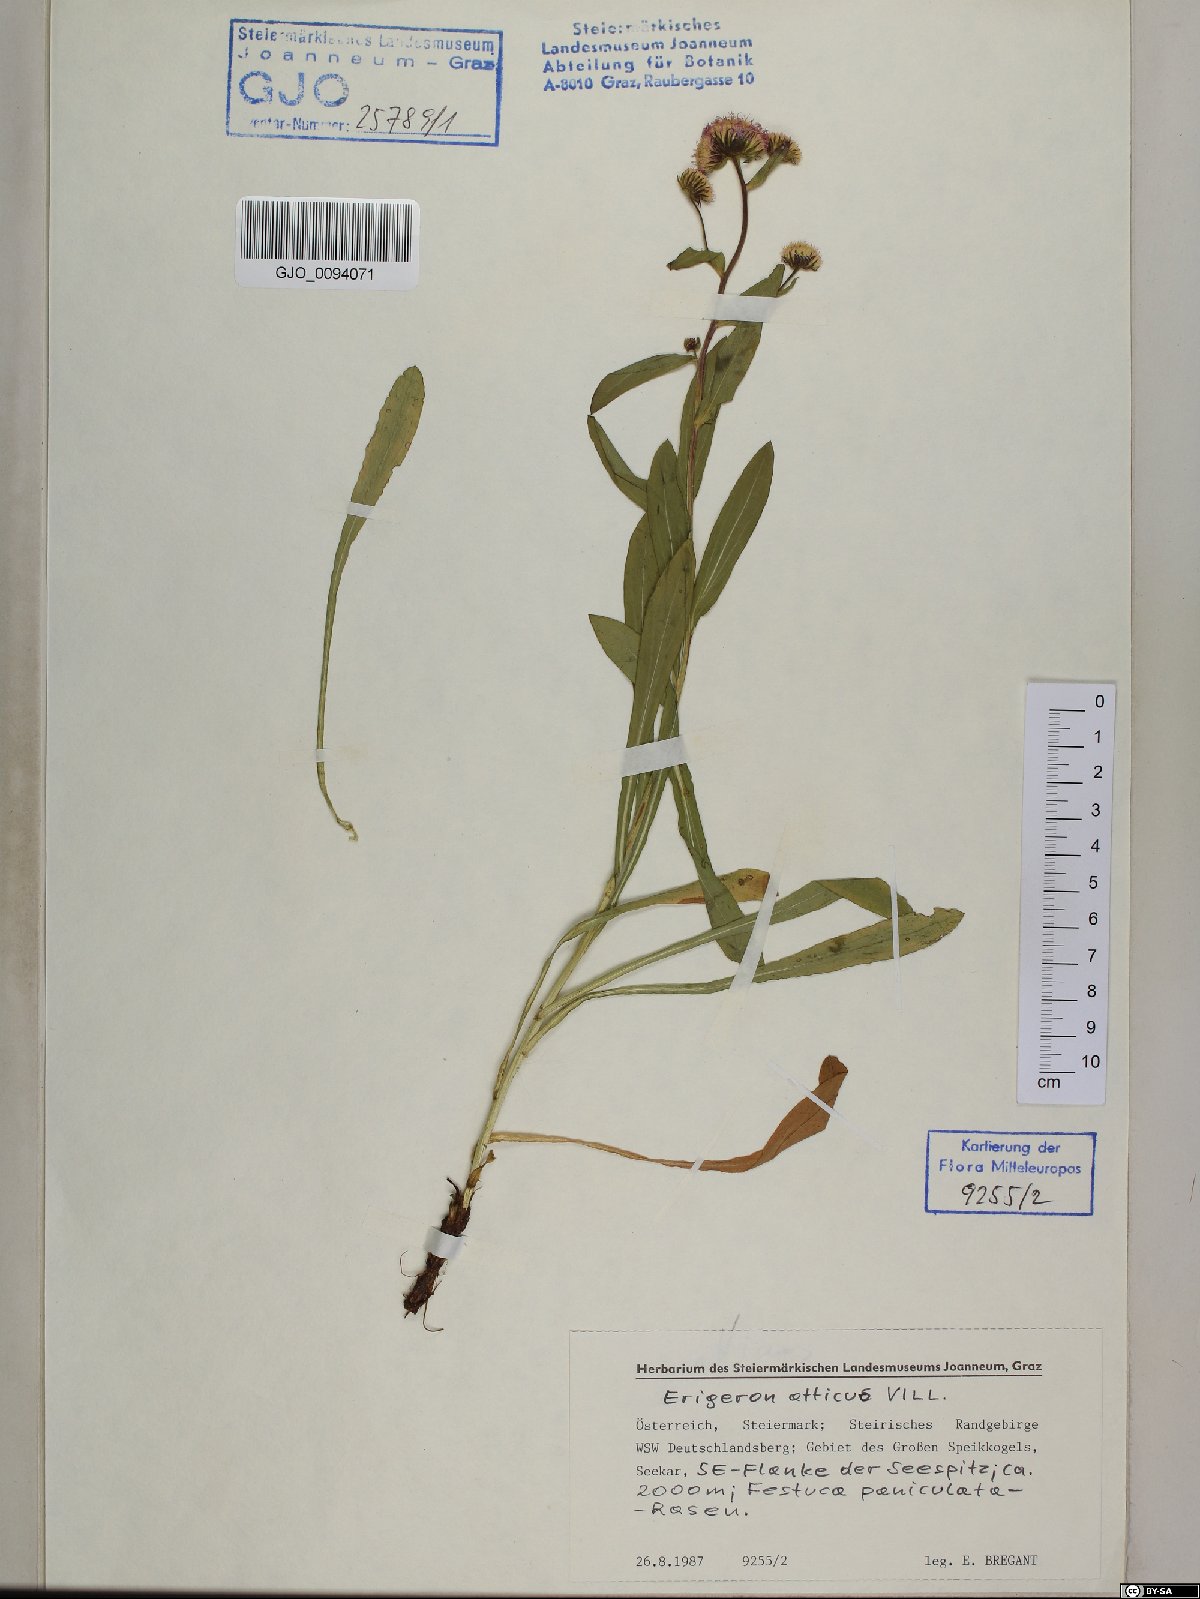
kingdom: Plantae
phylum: Tracheophyta
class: Magnoliopsida
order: Asterales
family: Asteraceae
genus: Erigeron
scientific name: Erigeron atticus
